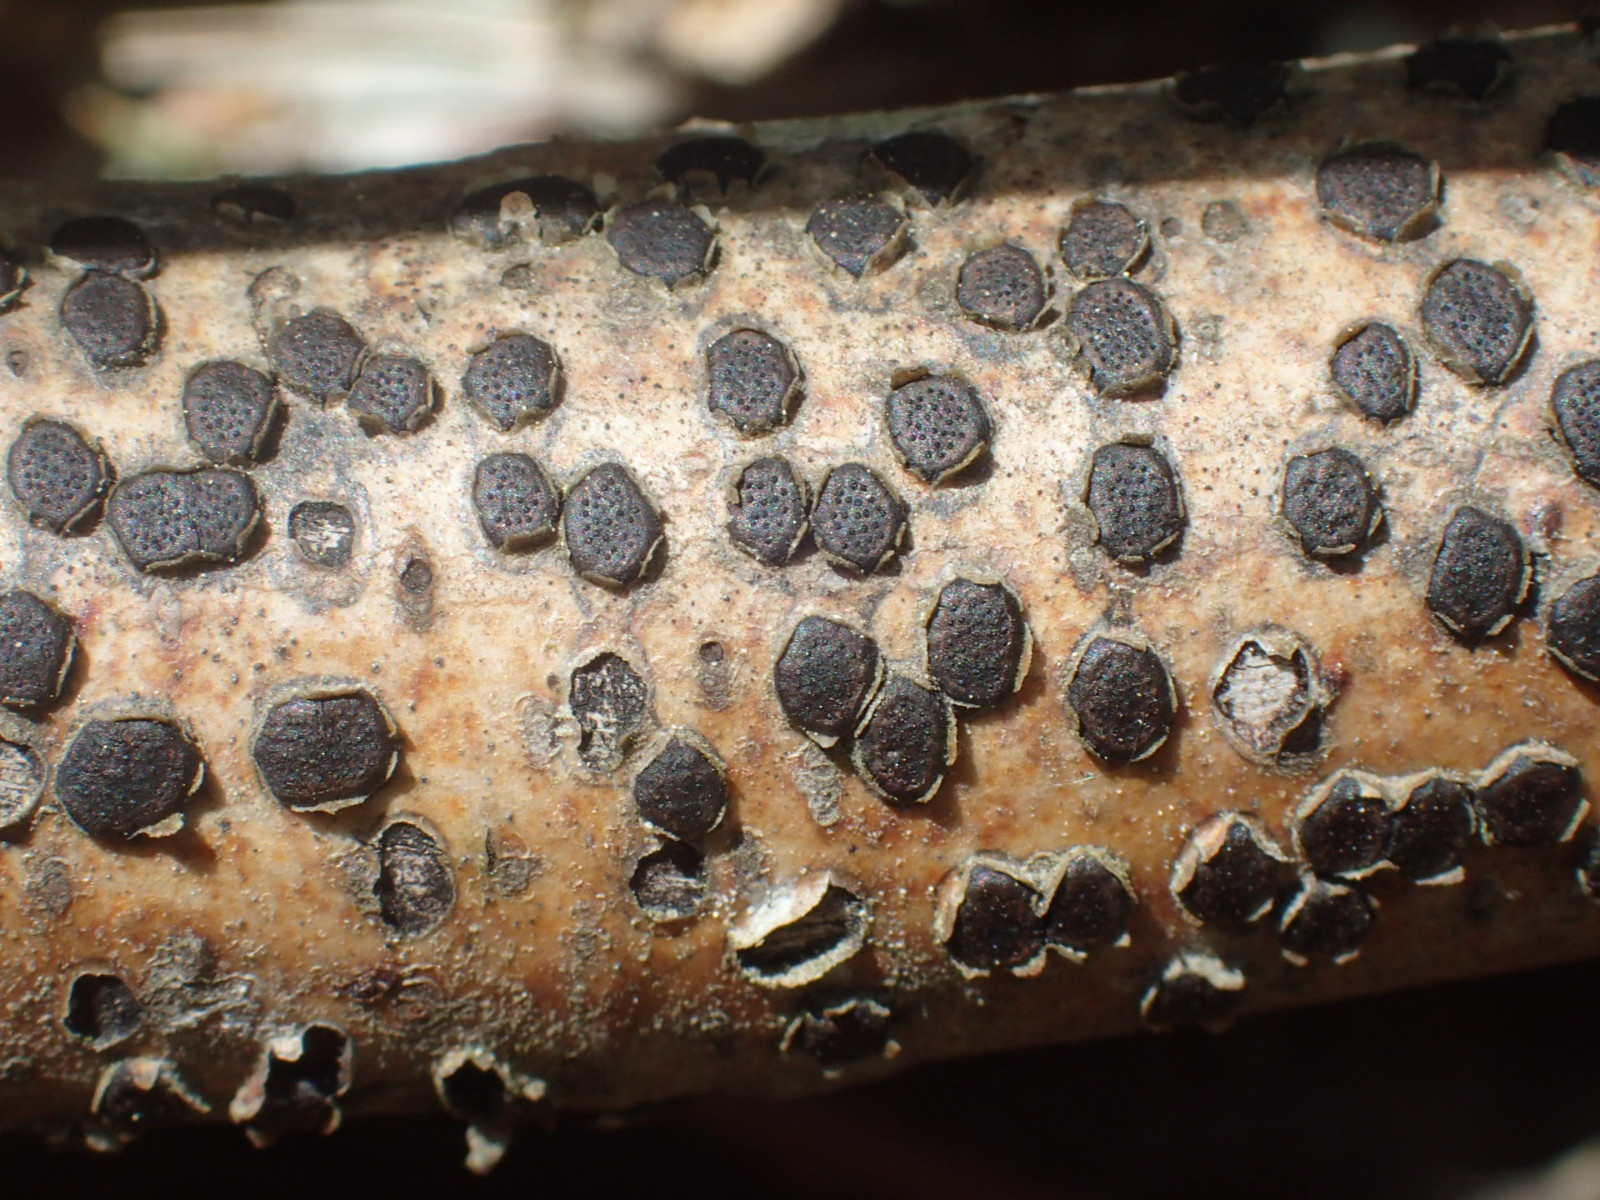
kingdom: Fungi
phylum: Ascomycota
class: Sordariomycetes
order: Xylariales
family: Diatrypaceae
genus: Diatrype
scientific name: Diatrype disciformis
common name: kant-kulskorpe
